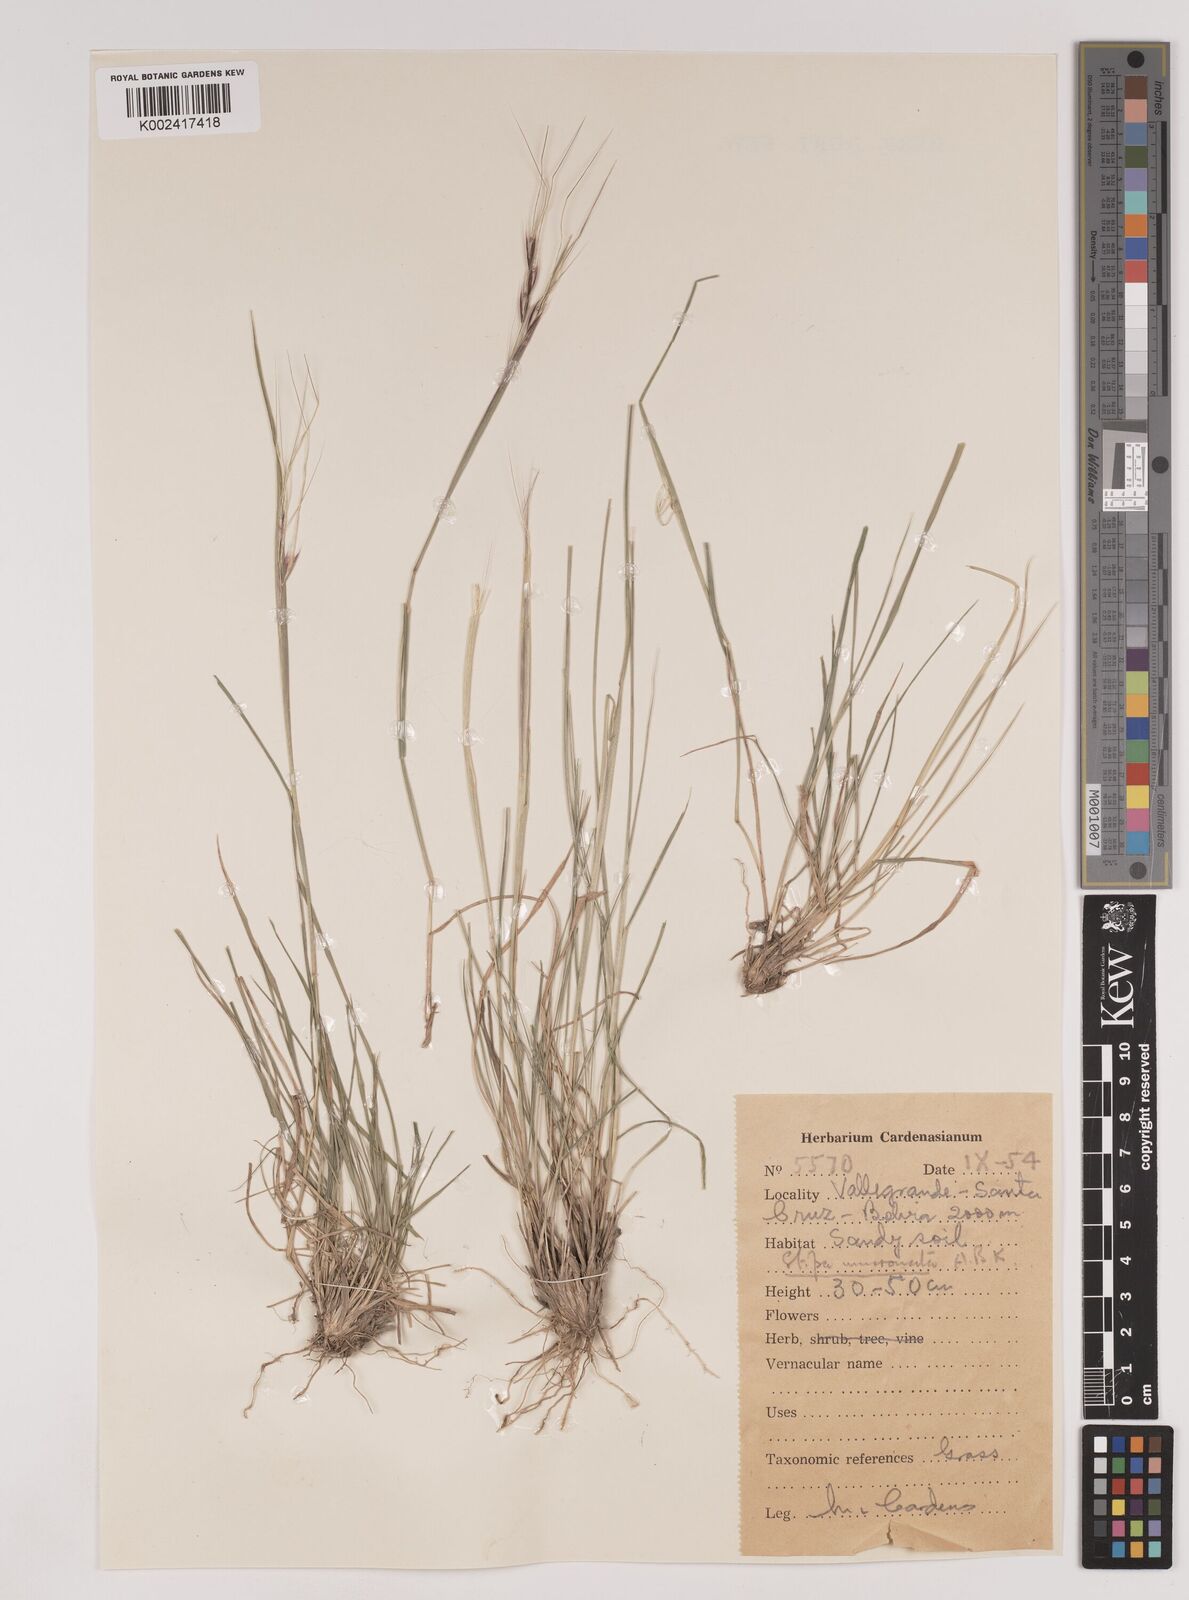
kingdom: Plantae
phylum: Tracheophyta
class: Liliopsida
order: Poales
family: Poaceae
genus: Nassella
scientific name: Nassella mucronata
